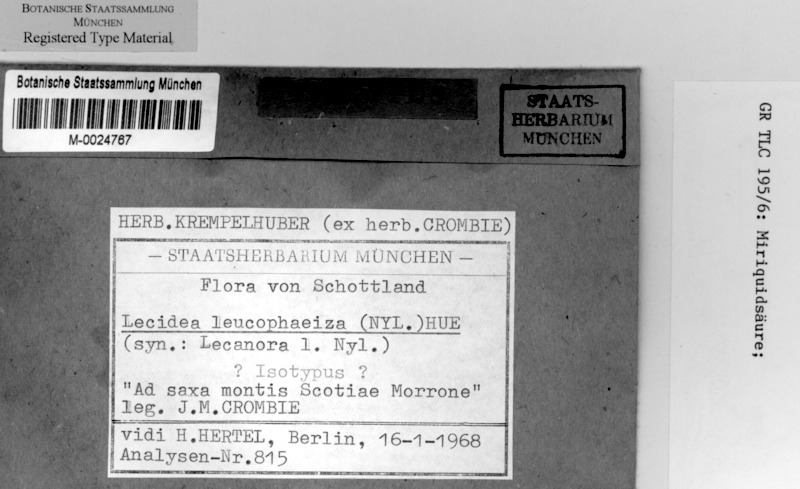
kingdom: Fungi
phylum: Ascomycota
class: Lecanoromycetes
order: Lecanorales
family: Lecanoraceae
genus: Miriquidica
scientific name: Miriquidica leucophaea
